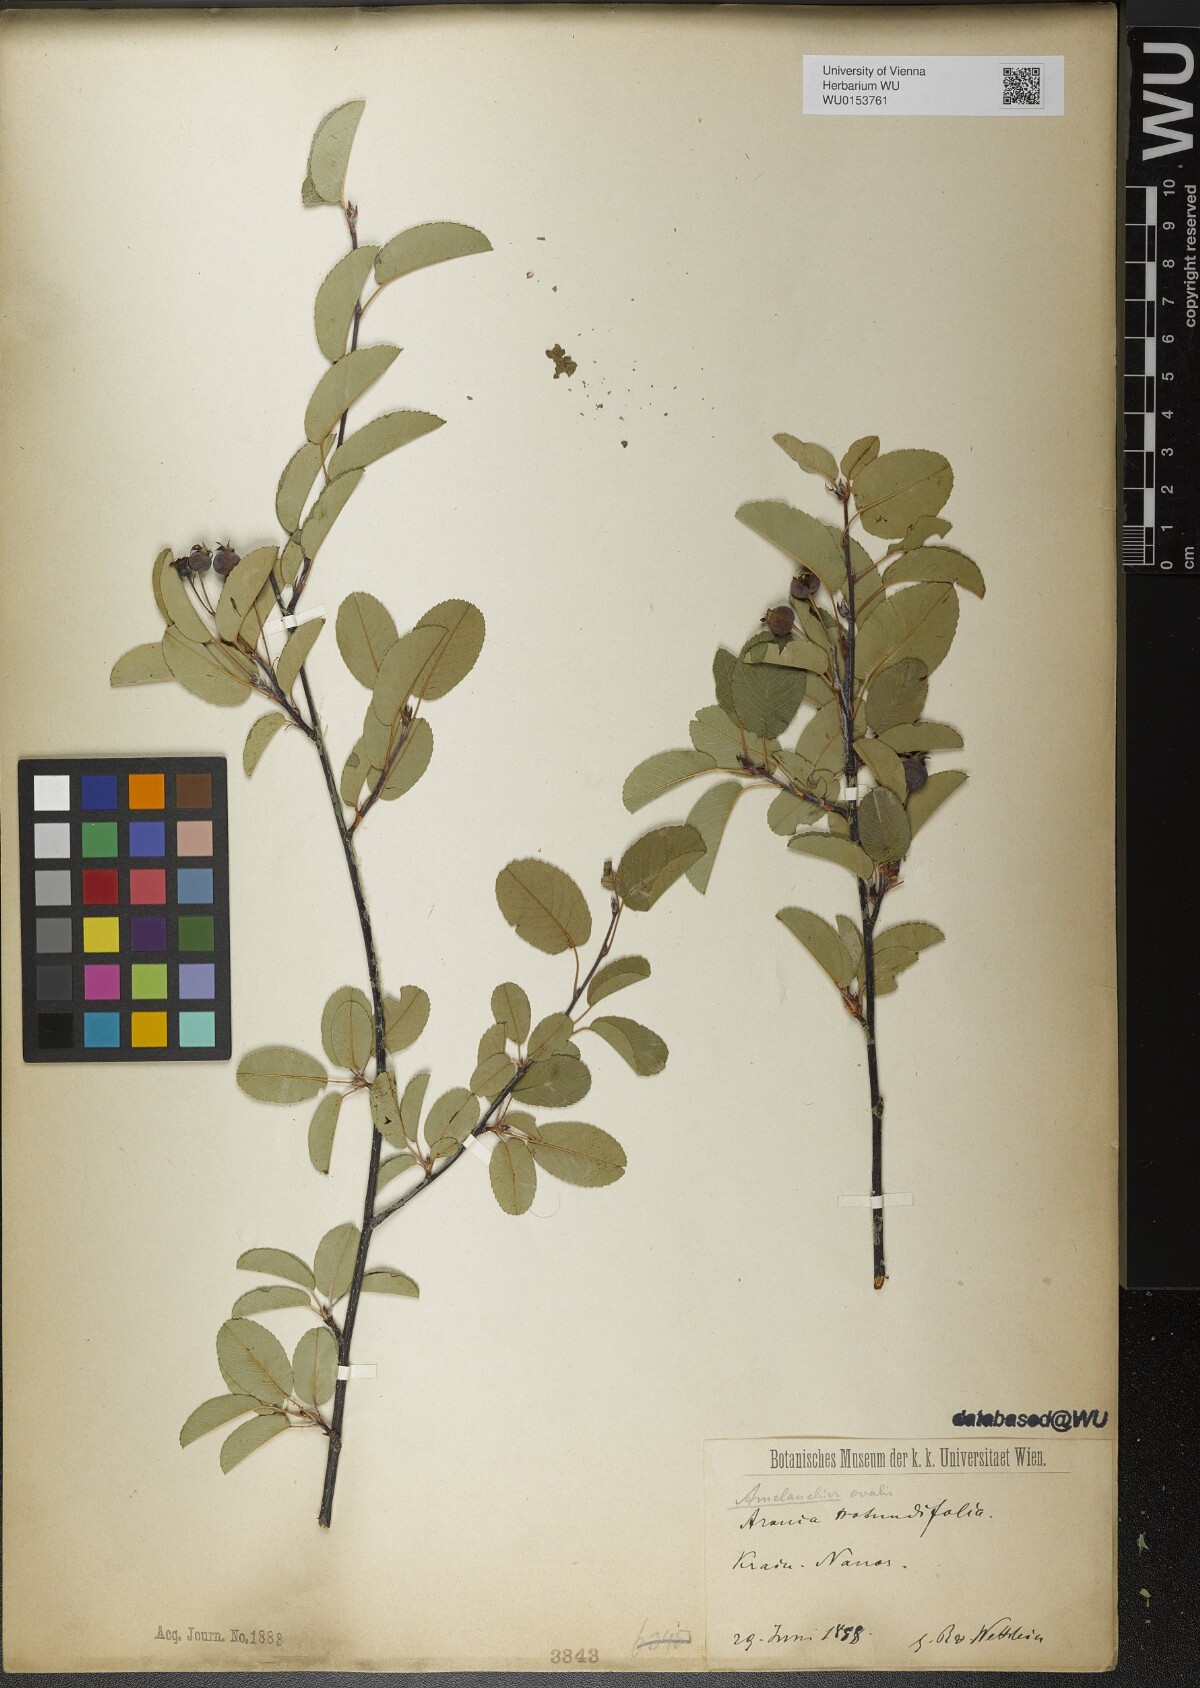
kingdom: Plantae
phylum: Tracheophyta
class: Magnoliopsida
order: Rosales
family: Rosaceae
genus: Amelanchier
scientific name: Amelanchier ovalis
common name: Serviceberry
